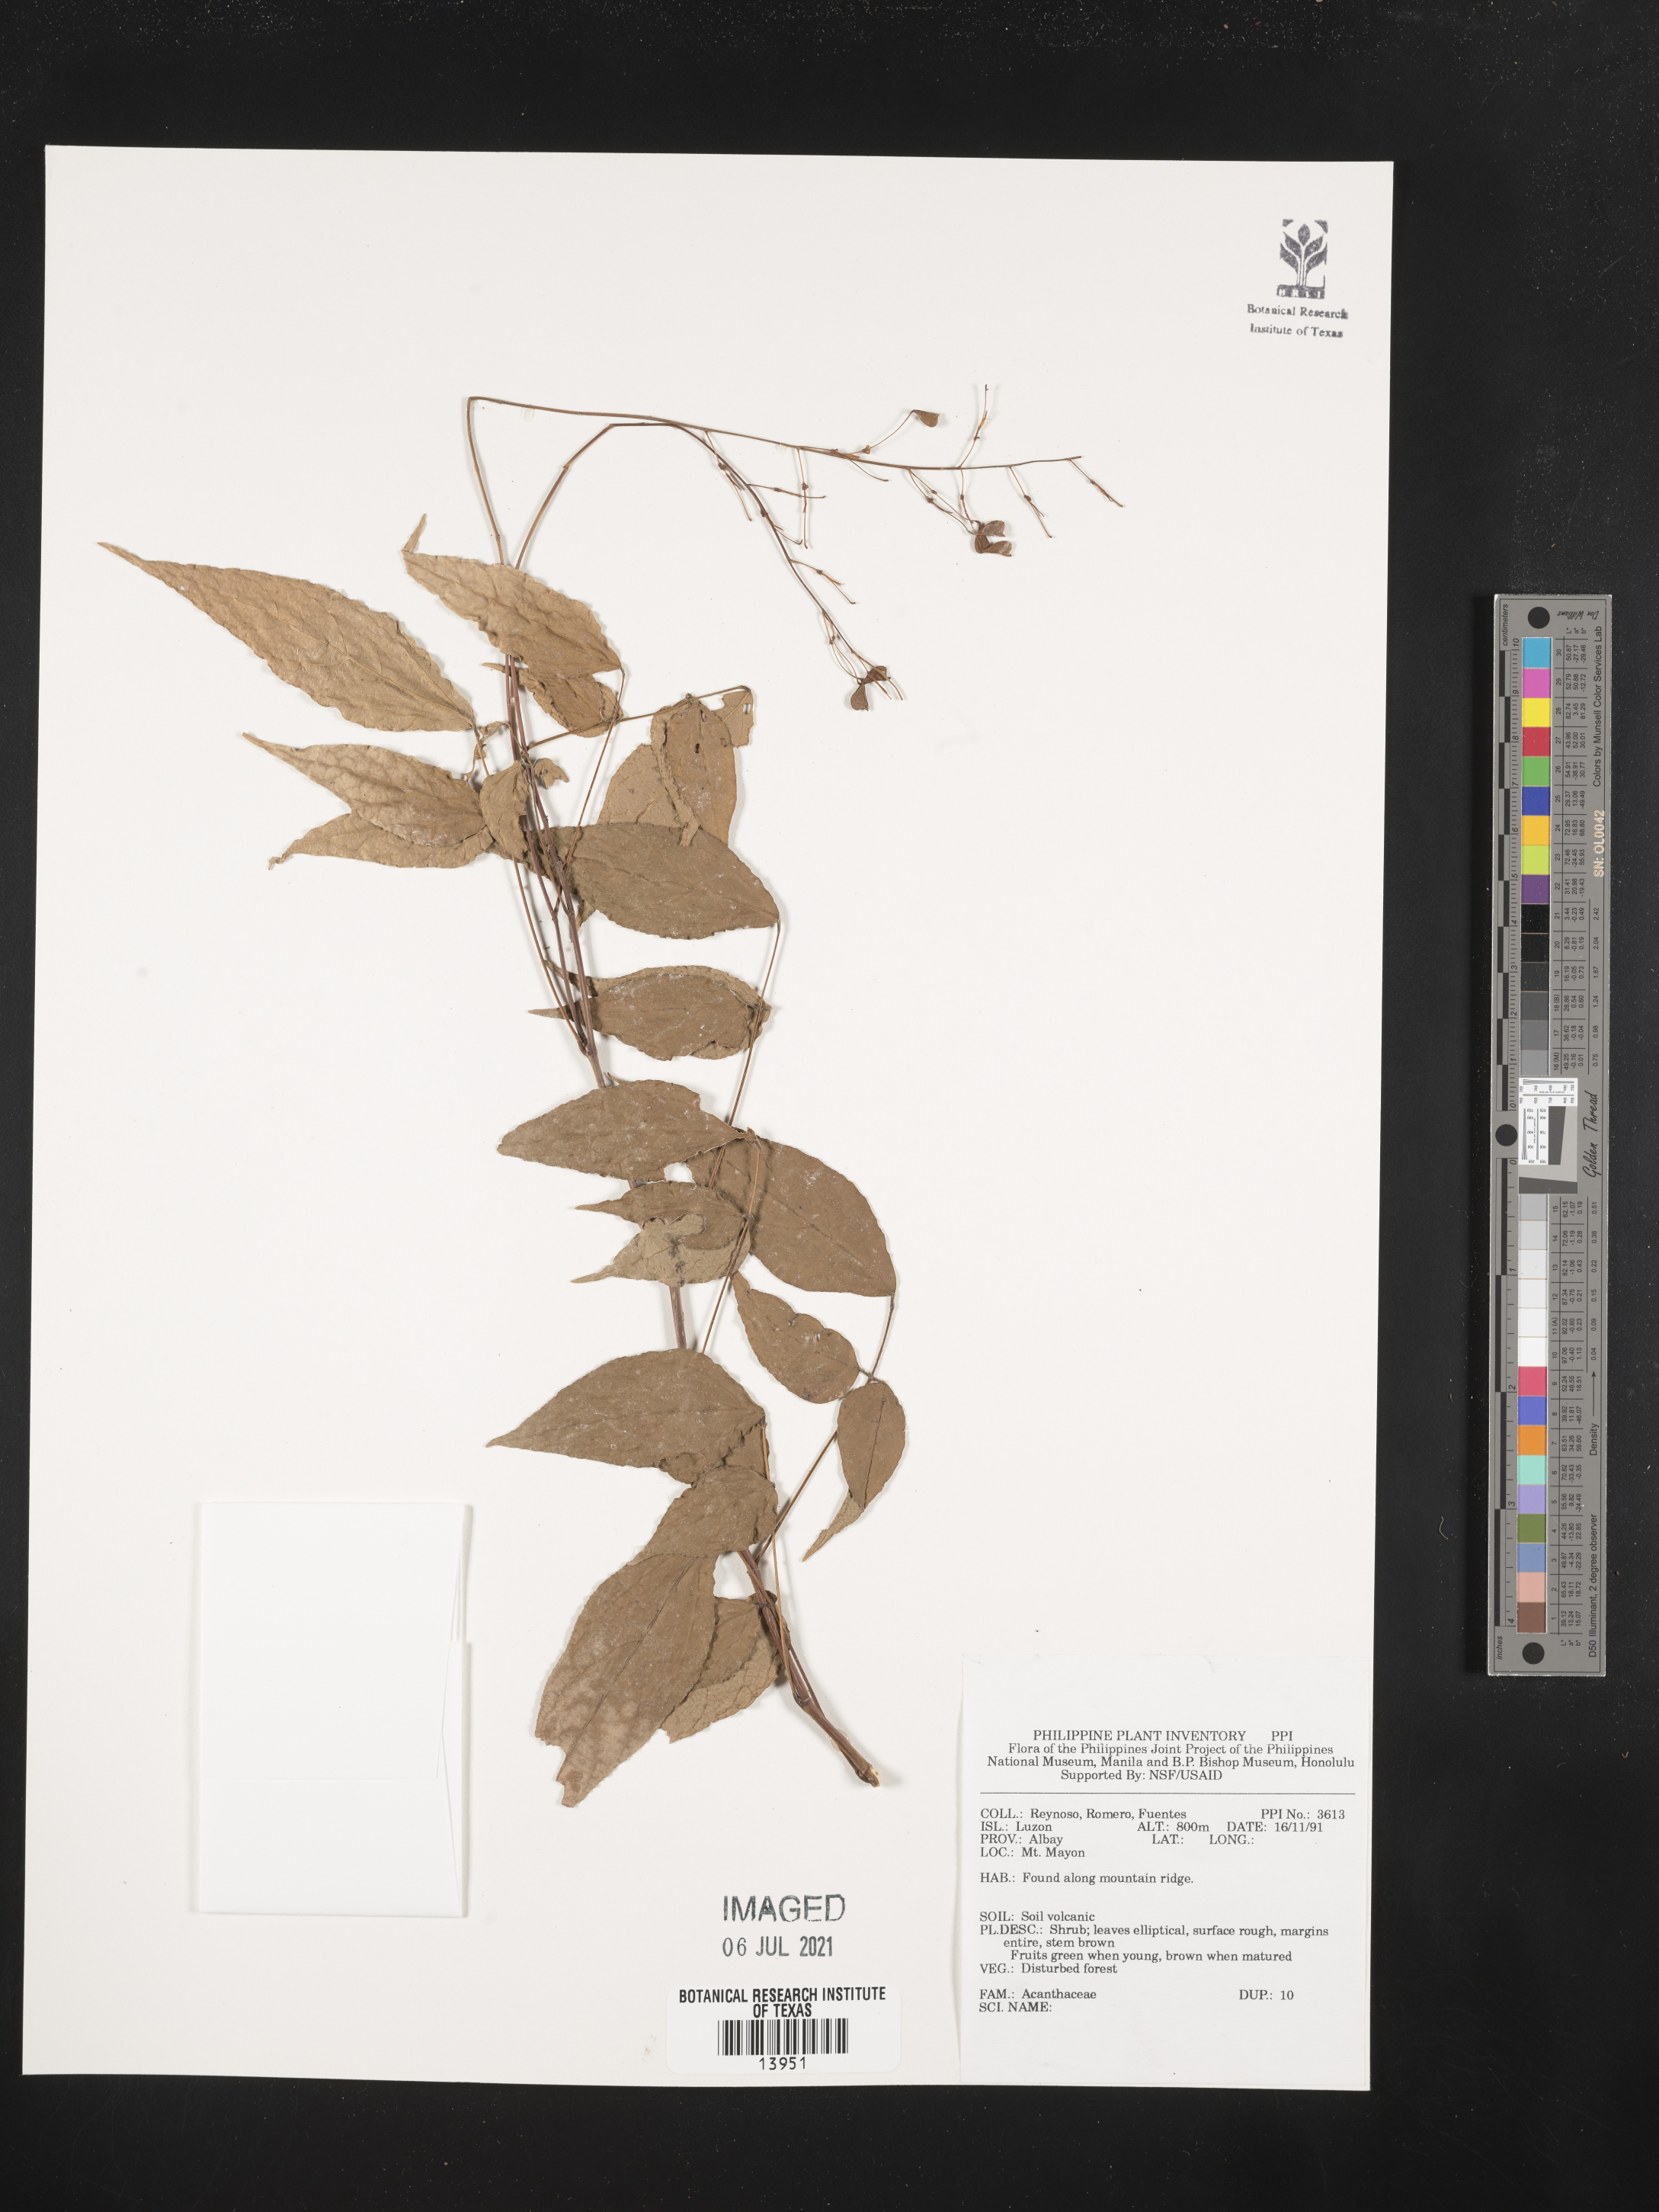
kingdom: Plantae
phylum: Tracheophyta
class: Magnoliopsida
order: Lamiales
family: Acanthaceae
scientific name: Acanthaceae
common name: Acanthaceae
